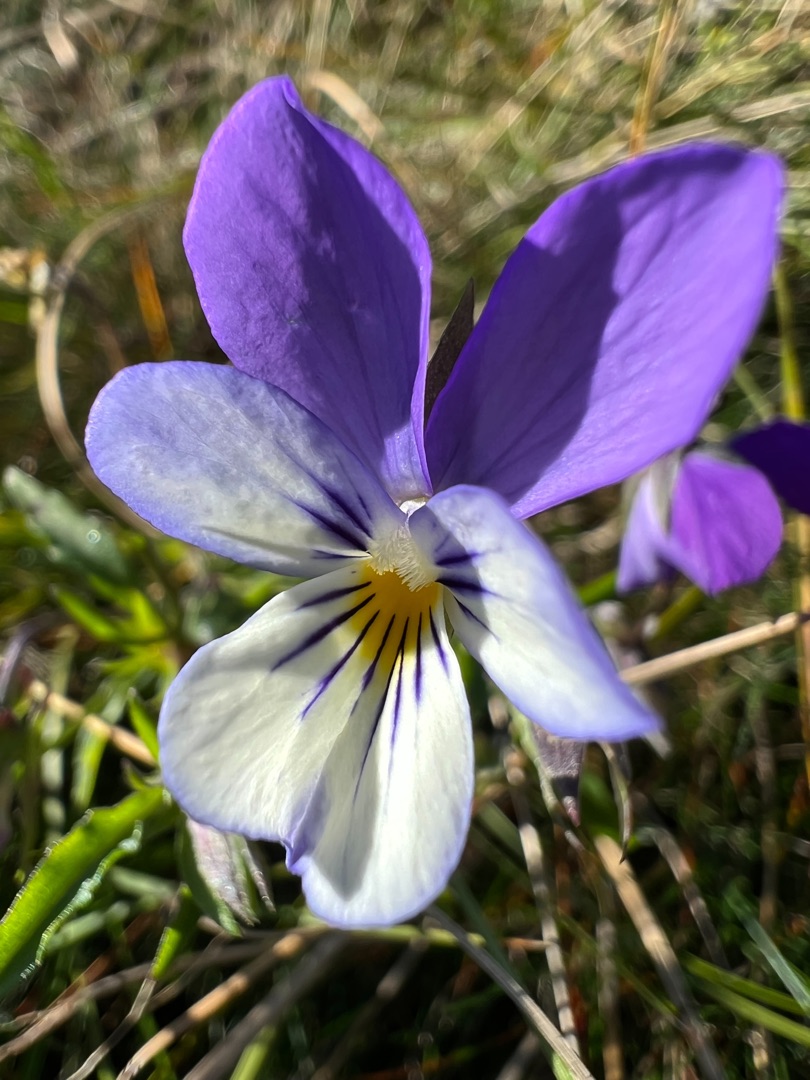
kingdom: Plantae
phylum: Tracheophyta
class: Magnoliopsida
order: Malpighiales
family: Violaceae
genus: Viola
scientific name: Viola tricolor
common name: Stedmoderblomst
